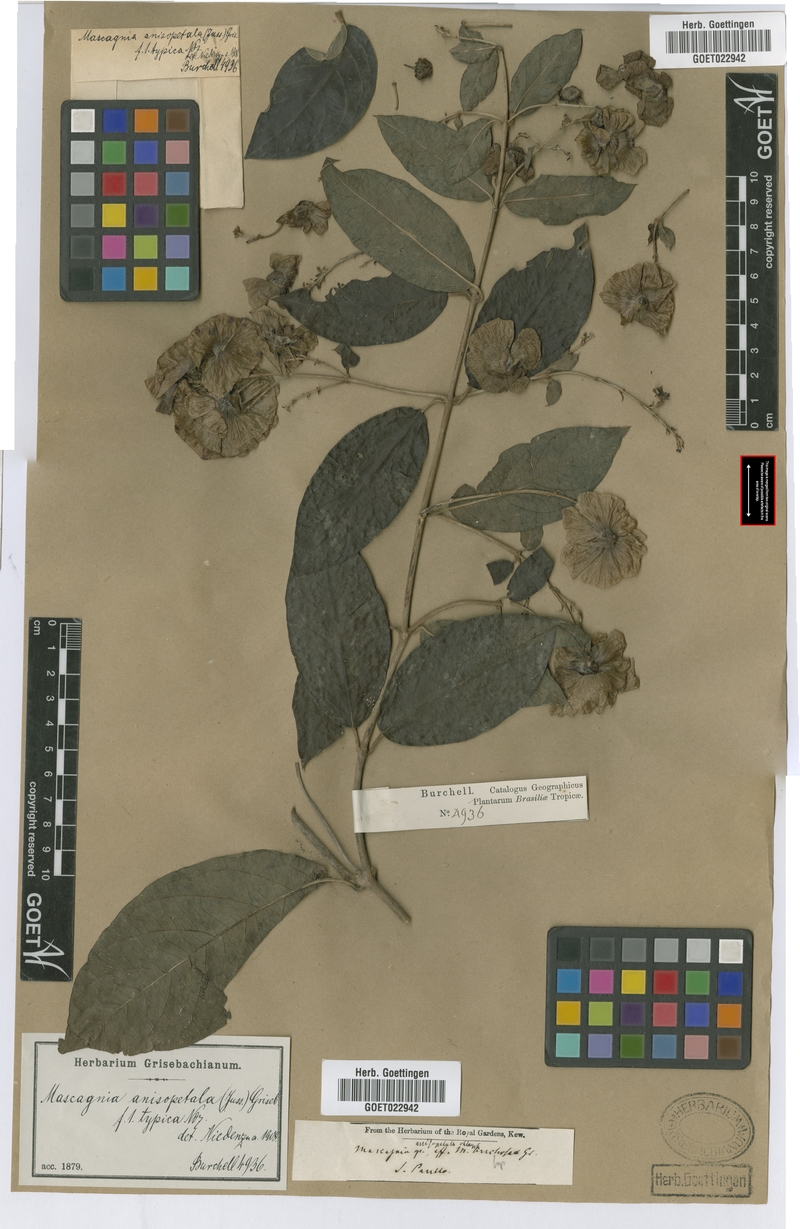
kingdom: Plantae
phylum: Tracheophyta
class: Magnoliopsida
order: Malpighiales
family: Malpighiaceae
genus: Alicia
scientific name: Alicia anisopetala
